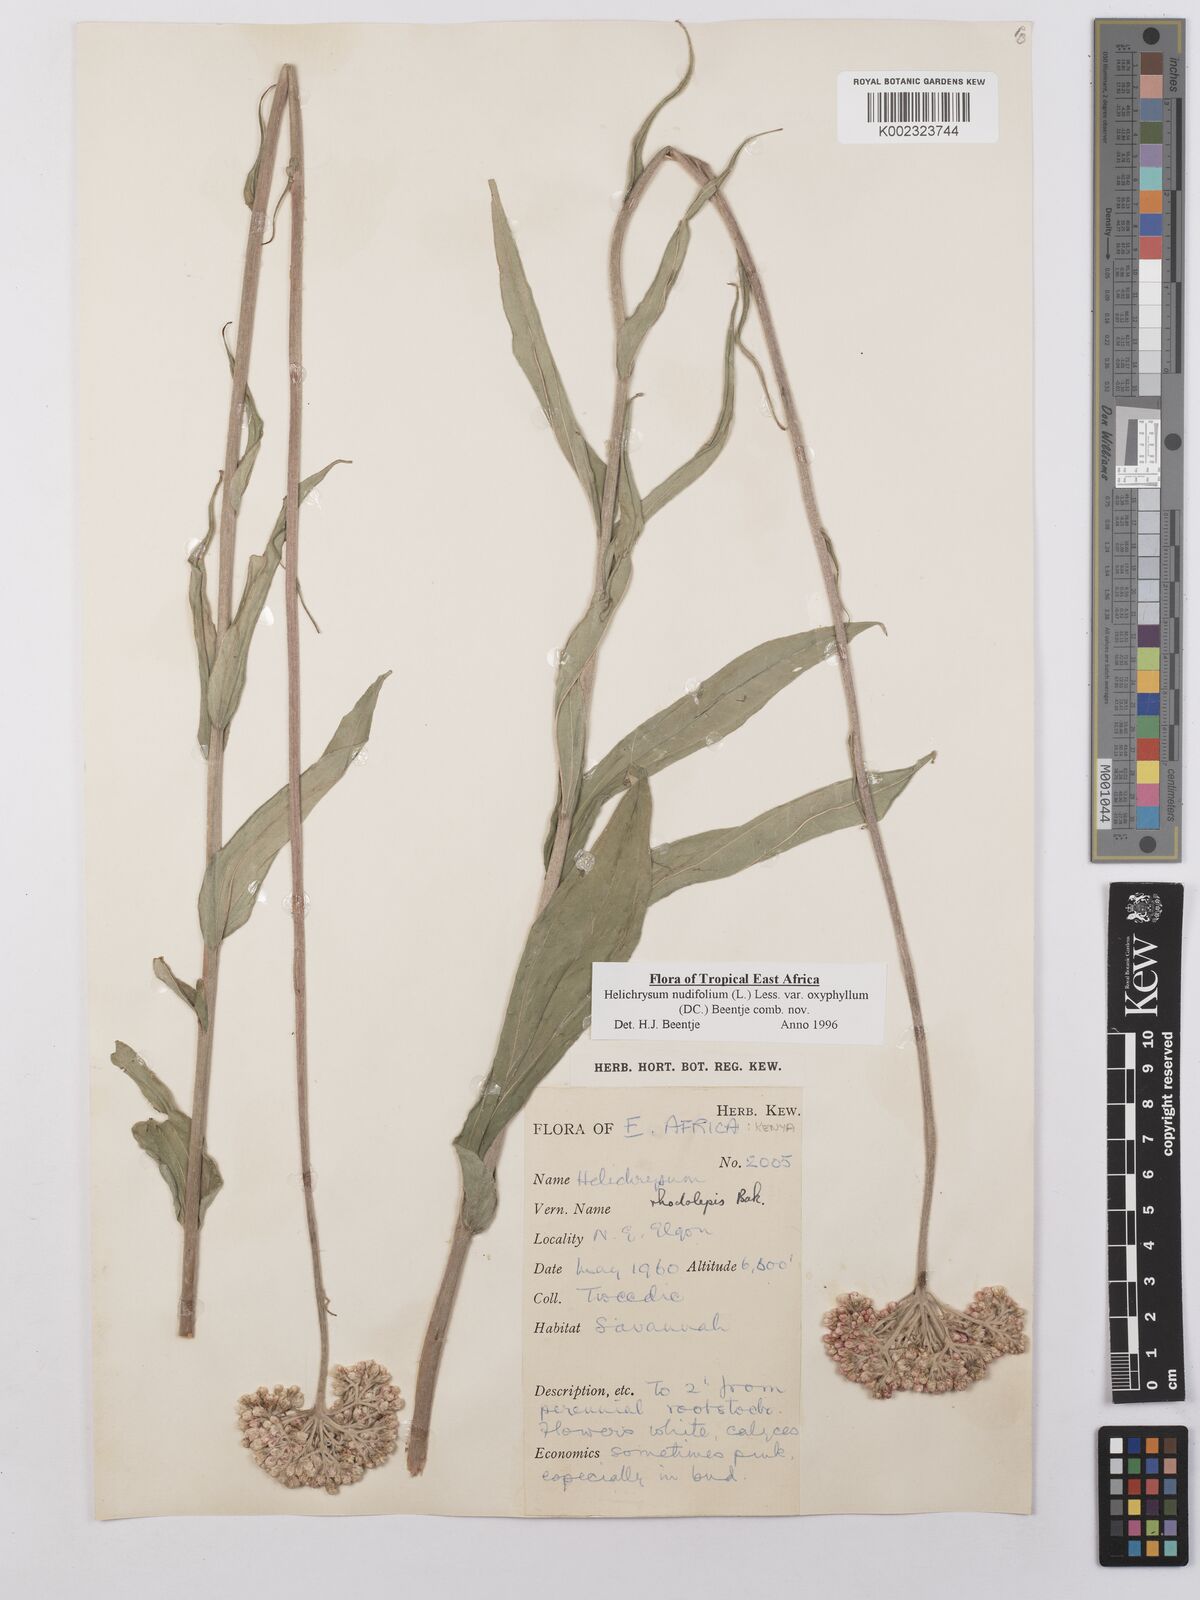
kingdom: Plantae
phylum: Tracheophyta
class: Magnoliopsida
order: Asterales
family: Asteraceae
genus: Helichrysum
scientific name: Helichrysum nudifolium
